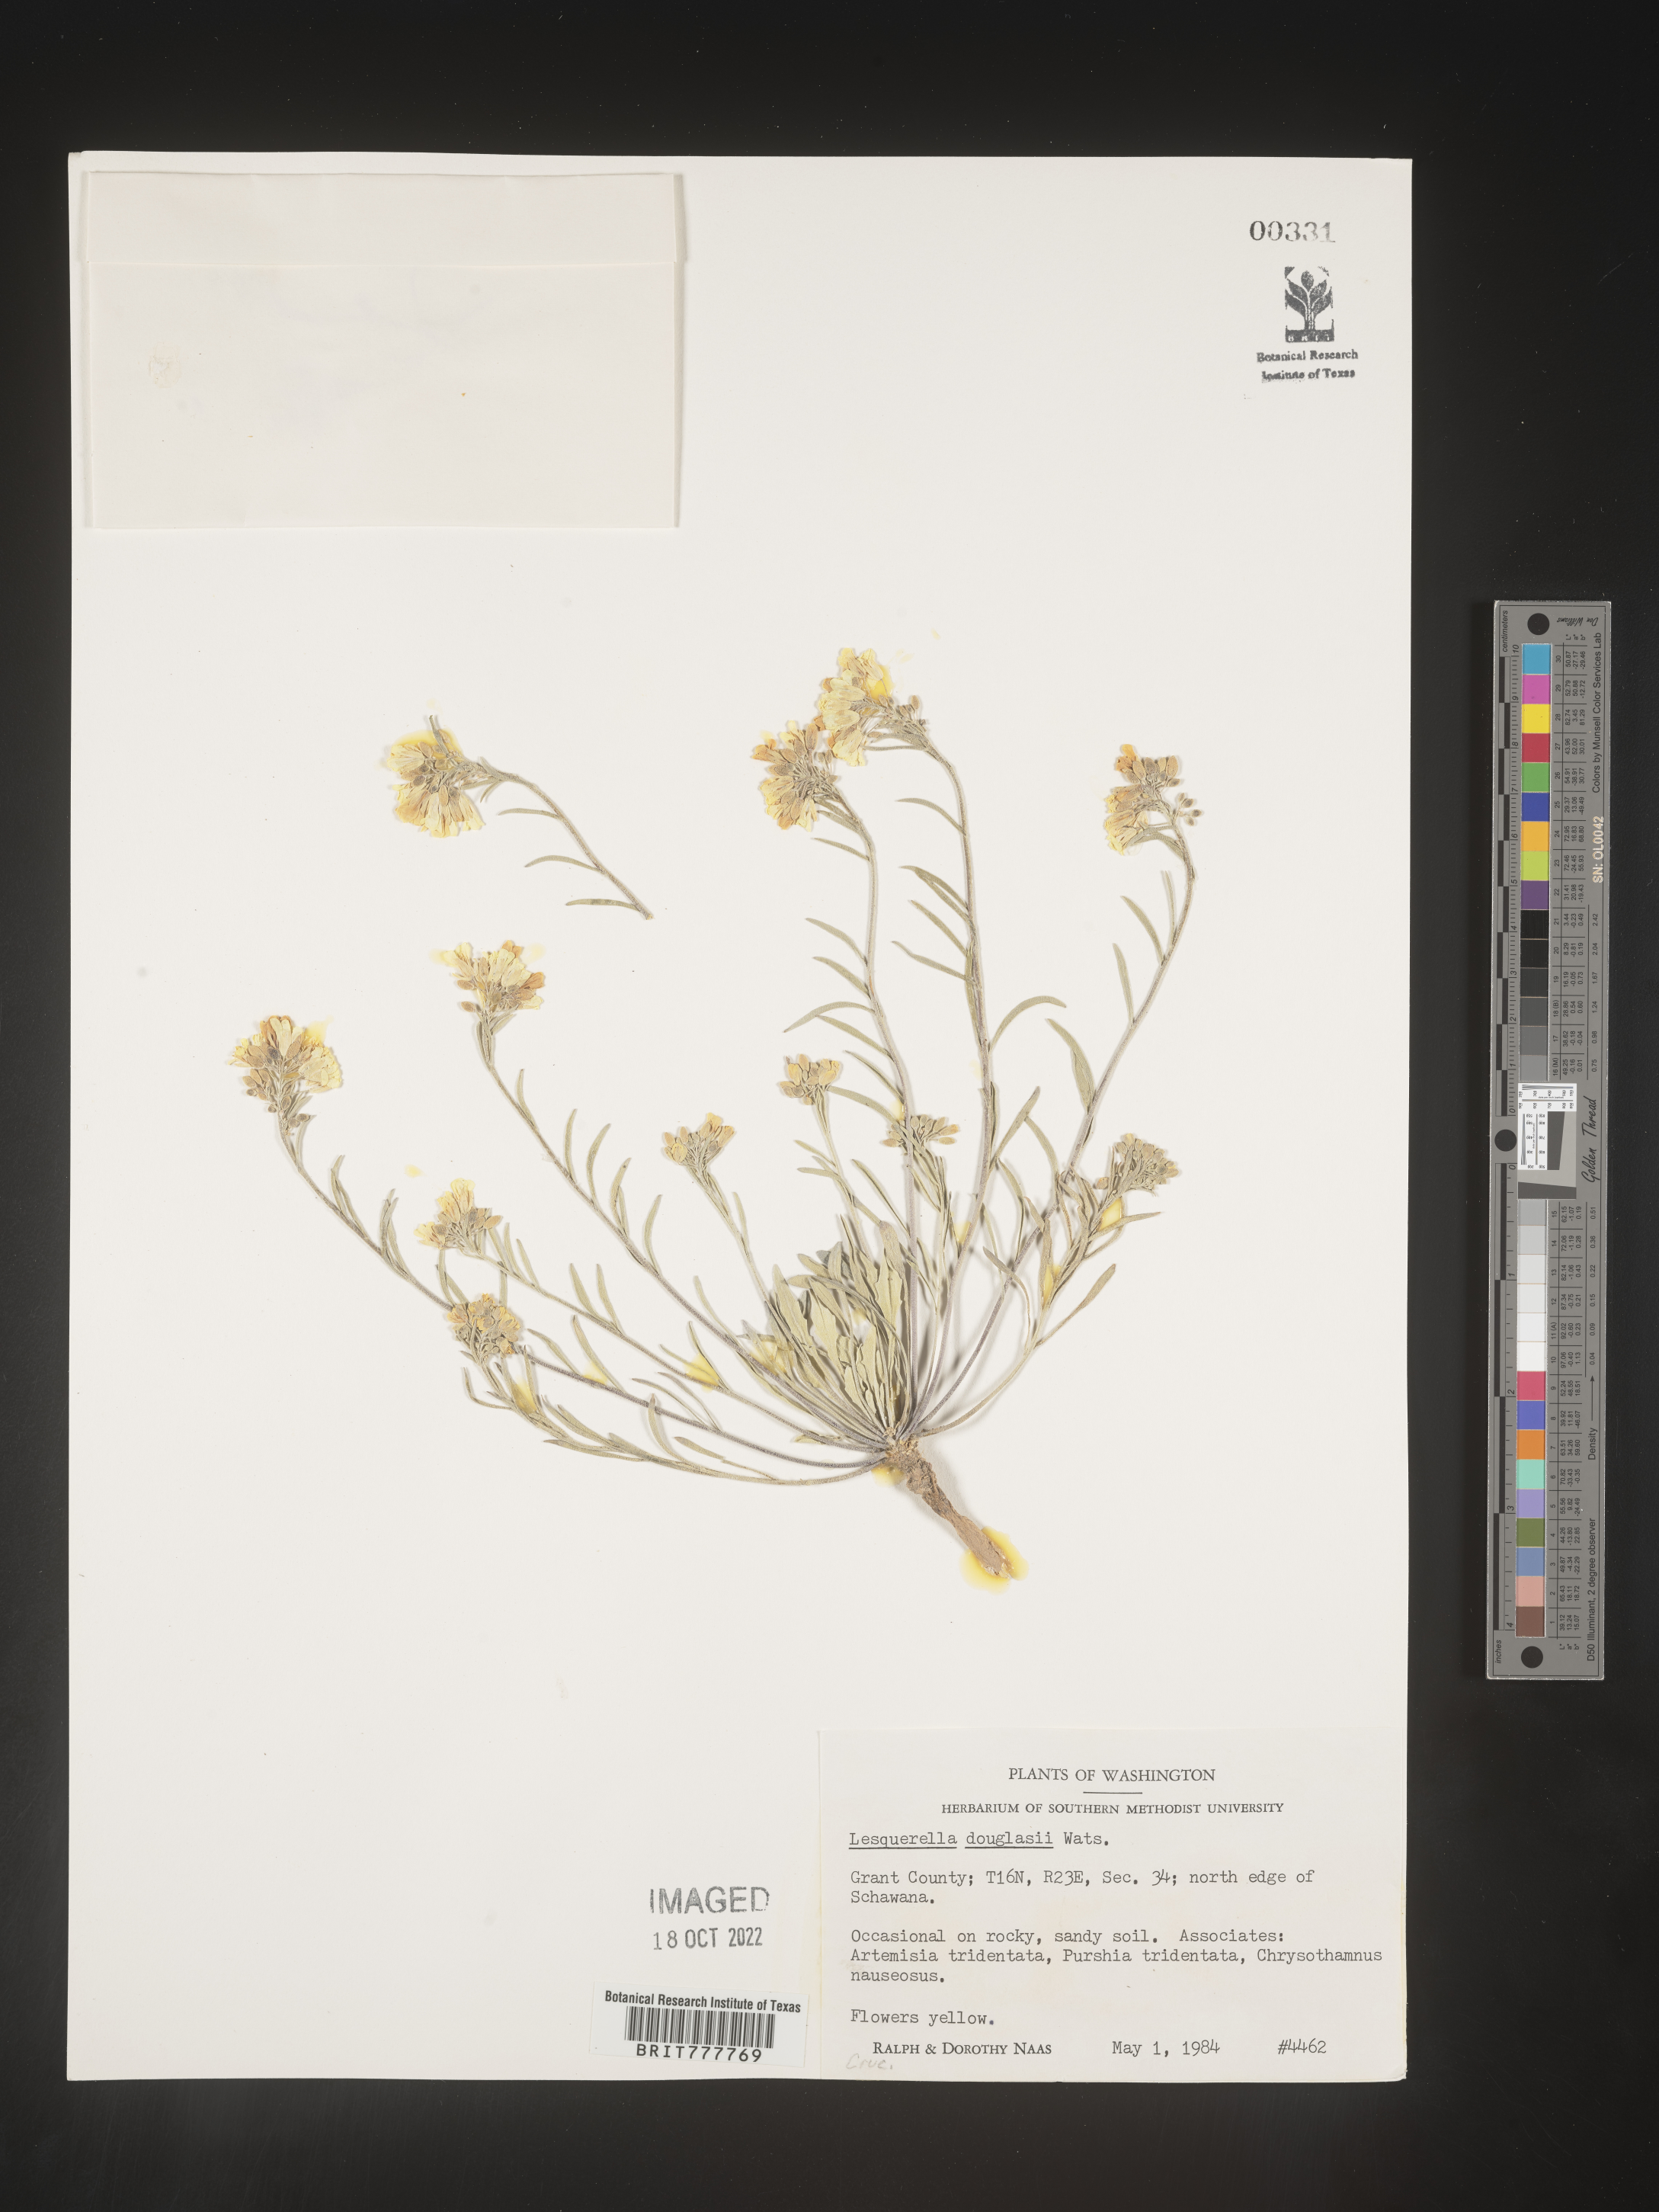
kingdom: Chromista
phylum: Cercozoa
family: Psammonobiotidae
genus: Lesquerella
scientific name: Lesquerella
